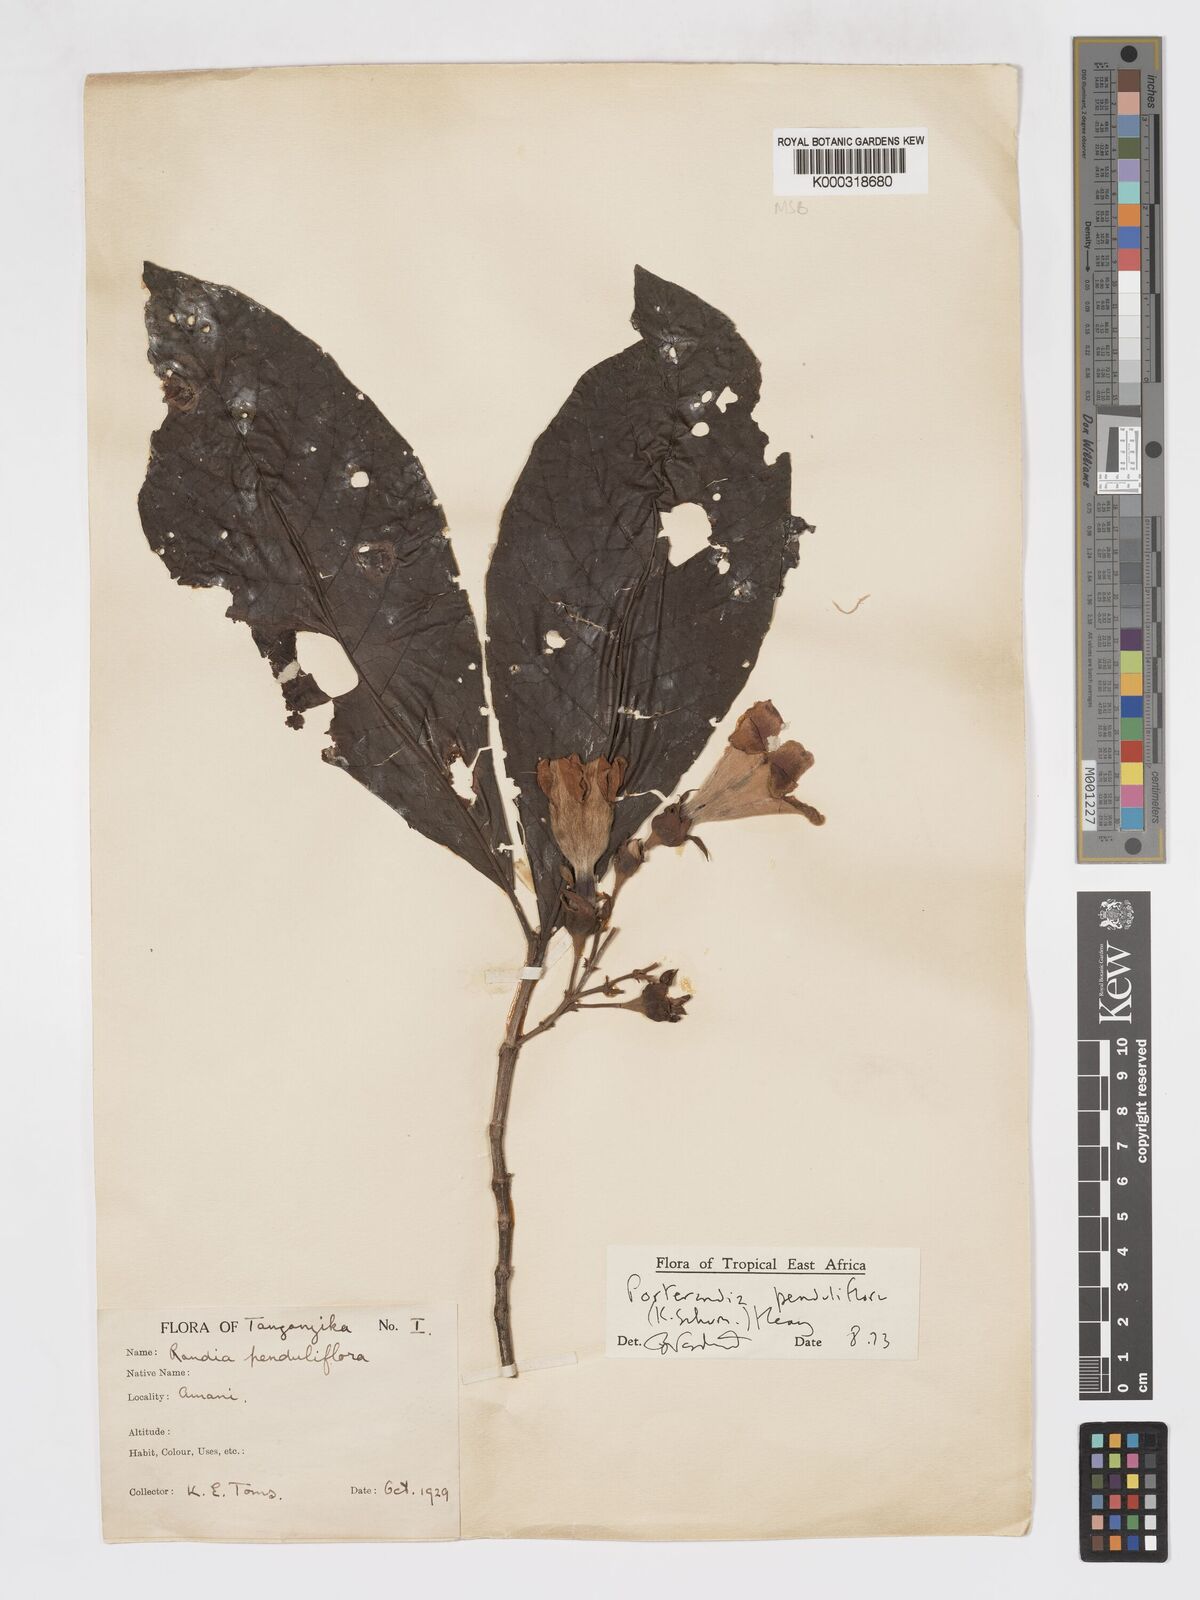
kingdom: Plantae
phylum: Tracheophyta
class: Magnoliopsida
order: Gentianales
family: Rubiaceae
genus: Aoranthe
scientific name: Aoranthe penduliflora
